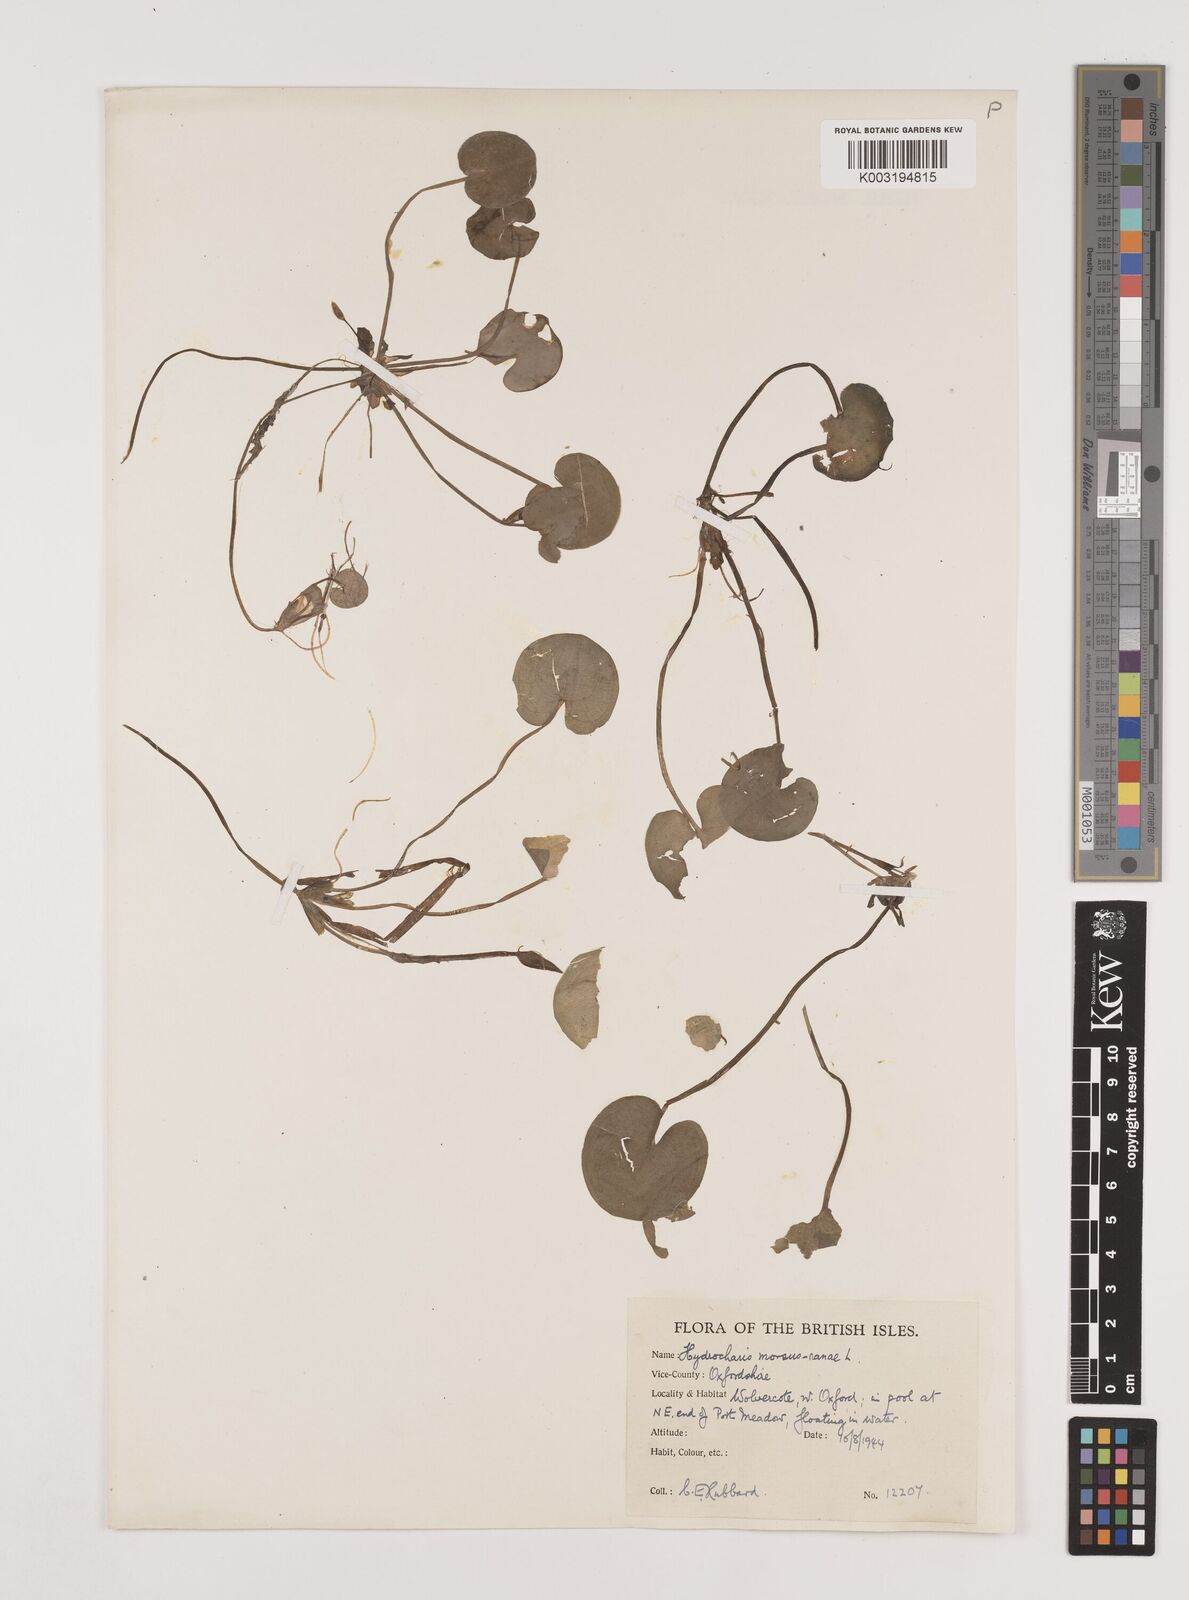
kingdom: Plantae
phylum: Tracheophyta
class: Liliopsida
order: Alismatales
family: Hydrocharitaceae
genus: Hydrocharis
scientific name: Hydrocharis morsus-ranae
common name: Frogbit
